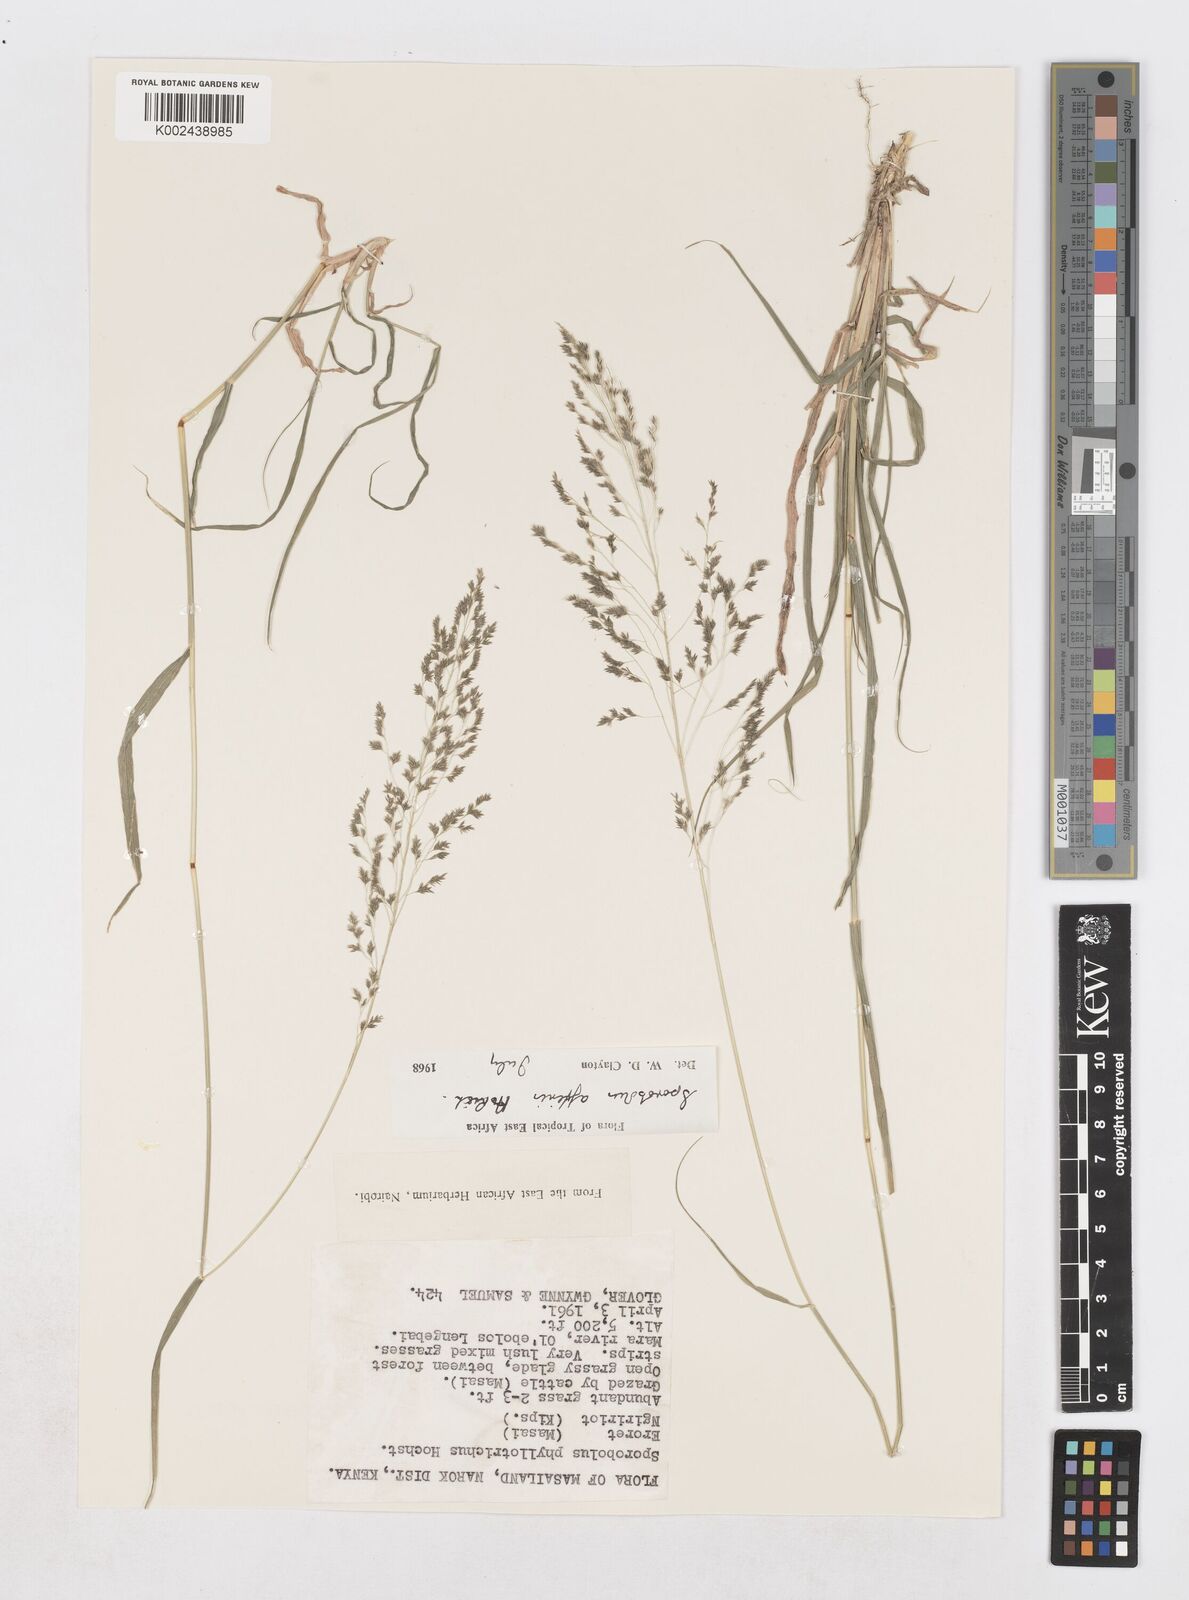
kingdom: Plantae
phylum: Tracheophyta
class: Liliopsida
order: Poales
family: Poaceae
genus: Sporobolus
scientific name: Sporobolus confinis
